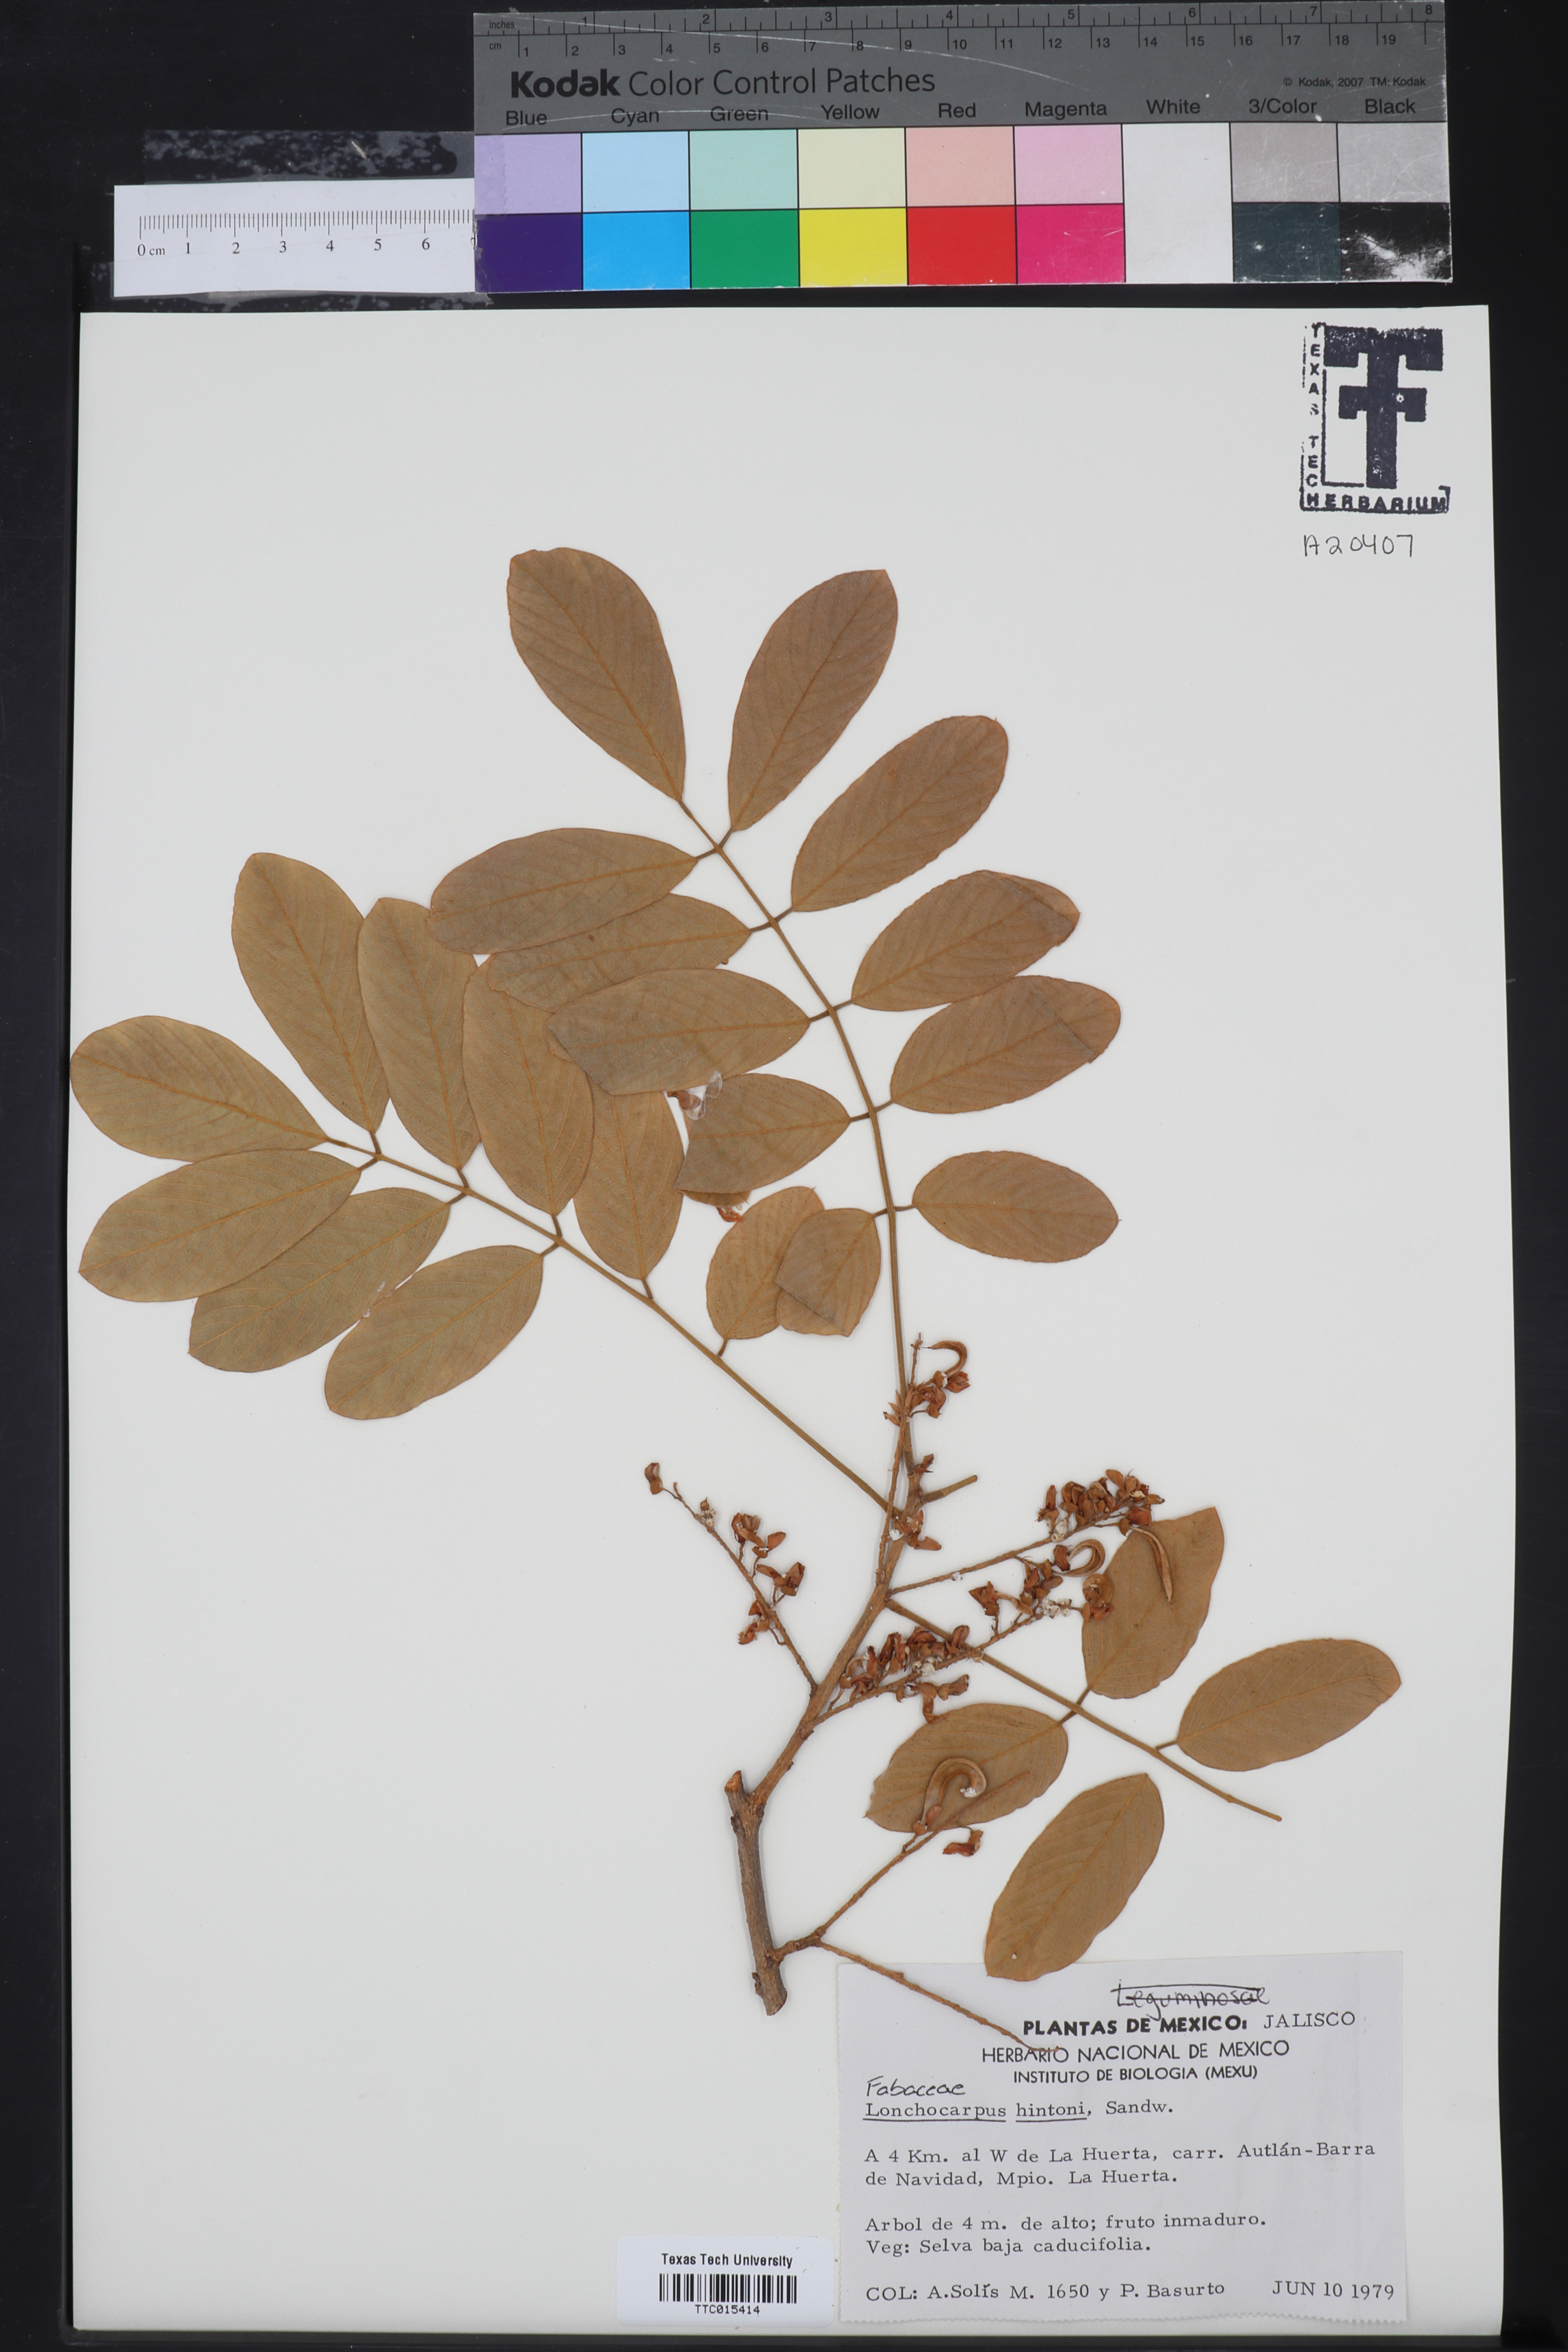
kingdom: Plantae
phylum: Tracheophyta
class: Magnoliopsida
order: Fabales
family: Fabaceae
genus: Lonchocarpus
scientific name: Lonchocarpus hintonii
